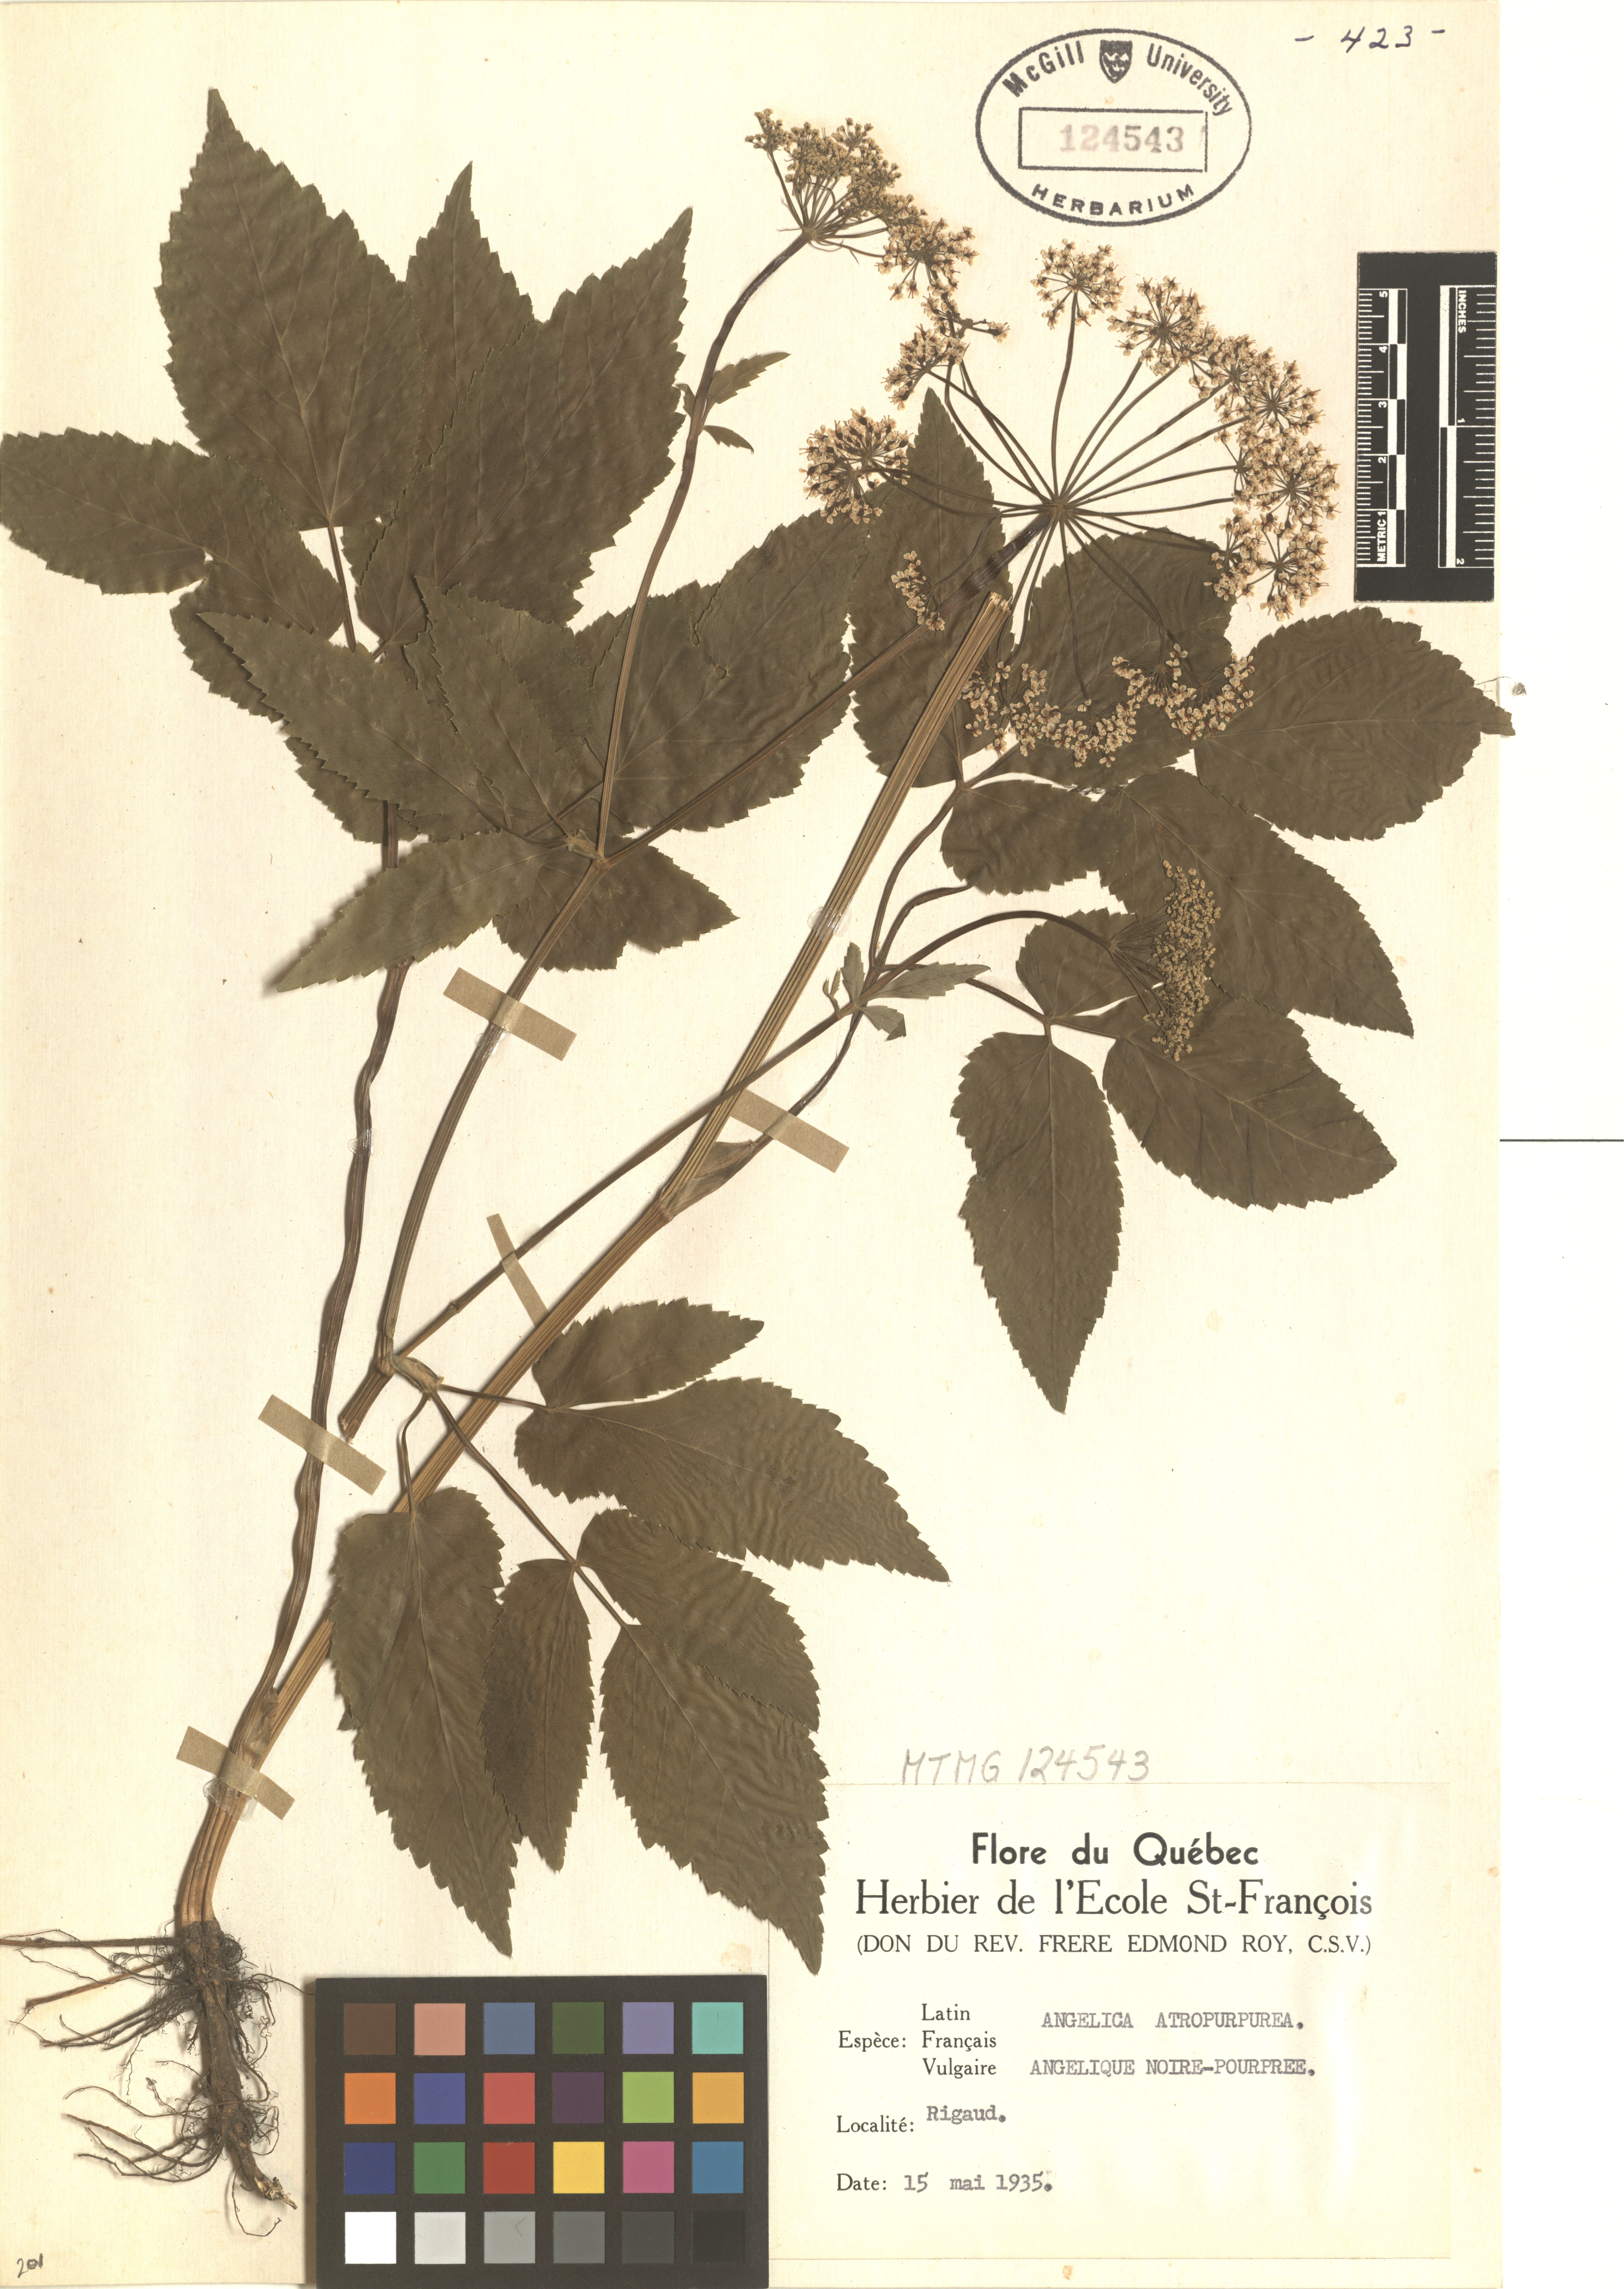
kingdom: Plantae
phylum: Tracheophyta
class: Magnoliopsida
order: Apiales
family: Apiaceae
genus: Angelica
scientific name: Angelica atropurpurea
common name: Great angelica
